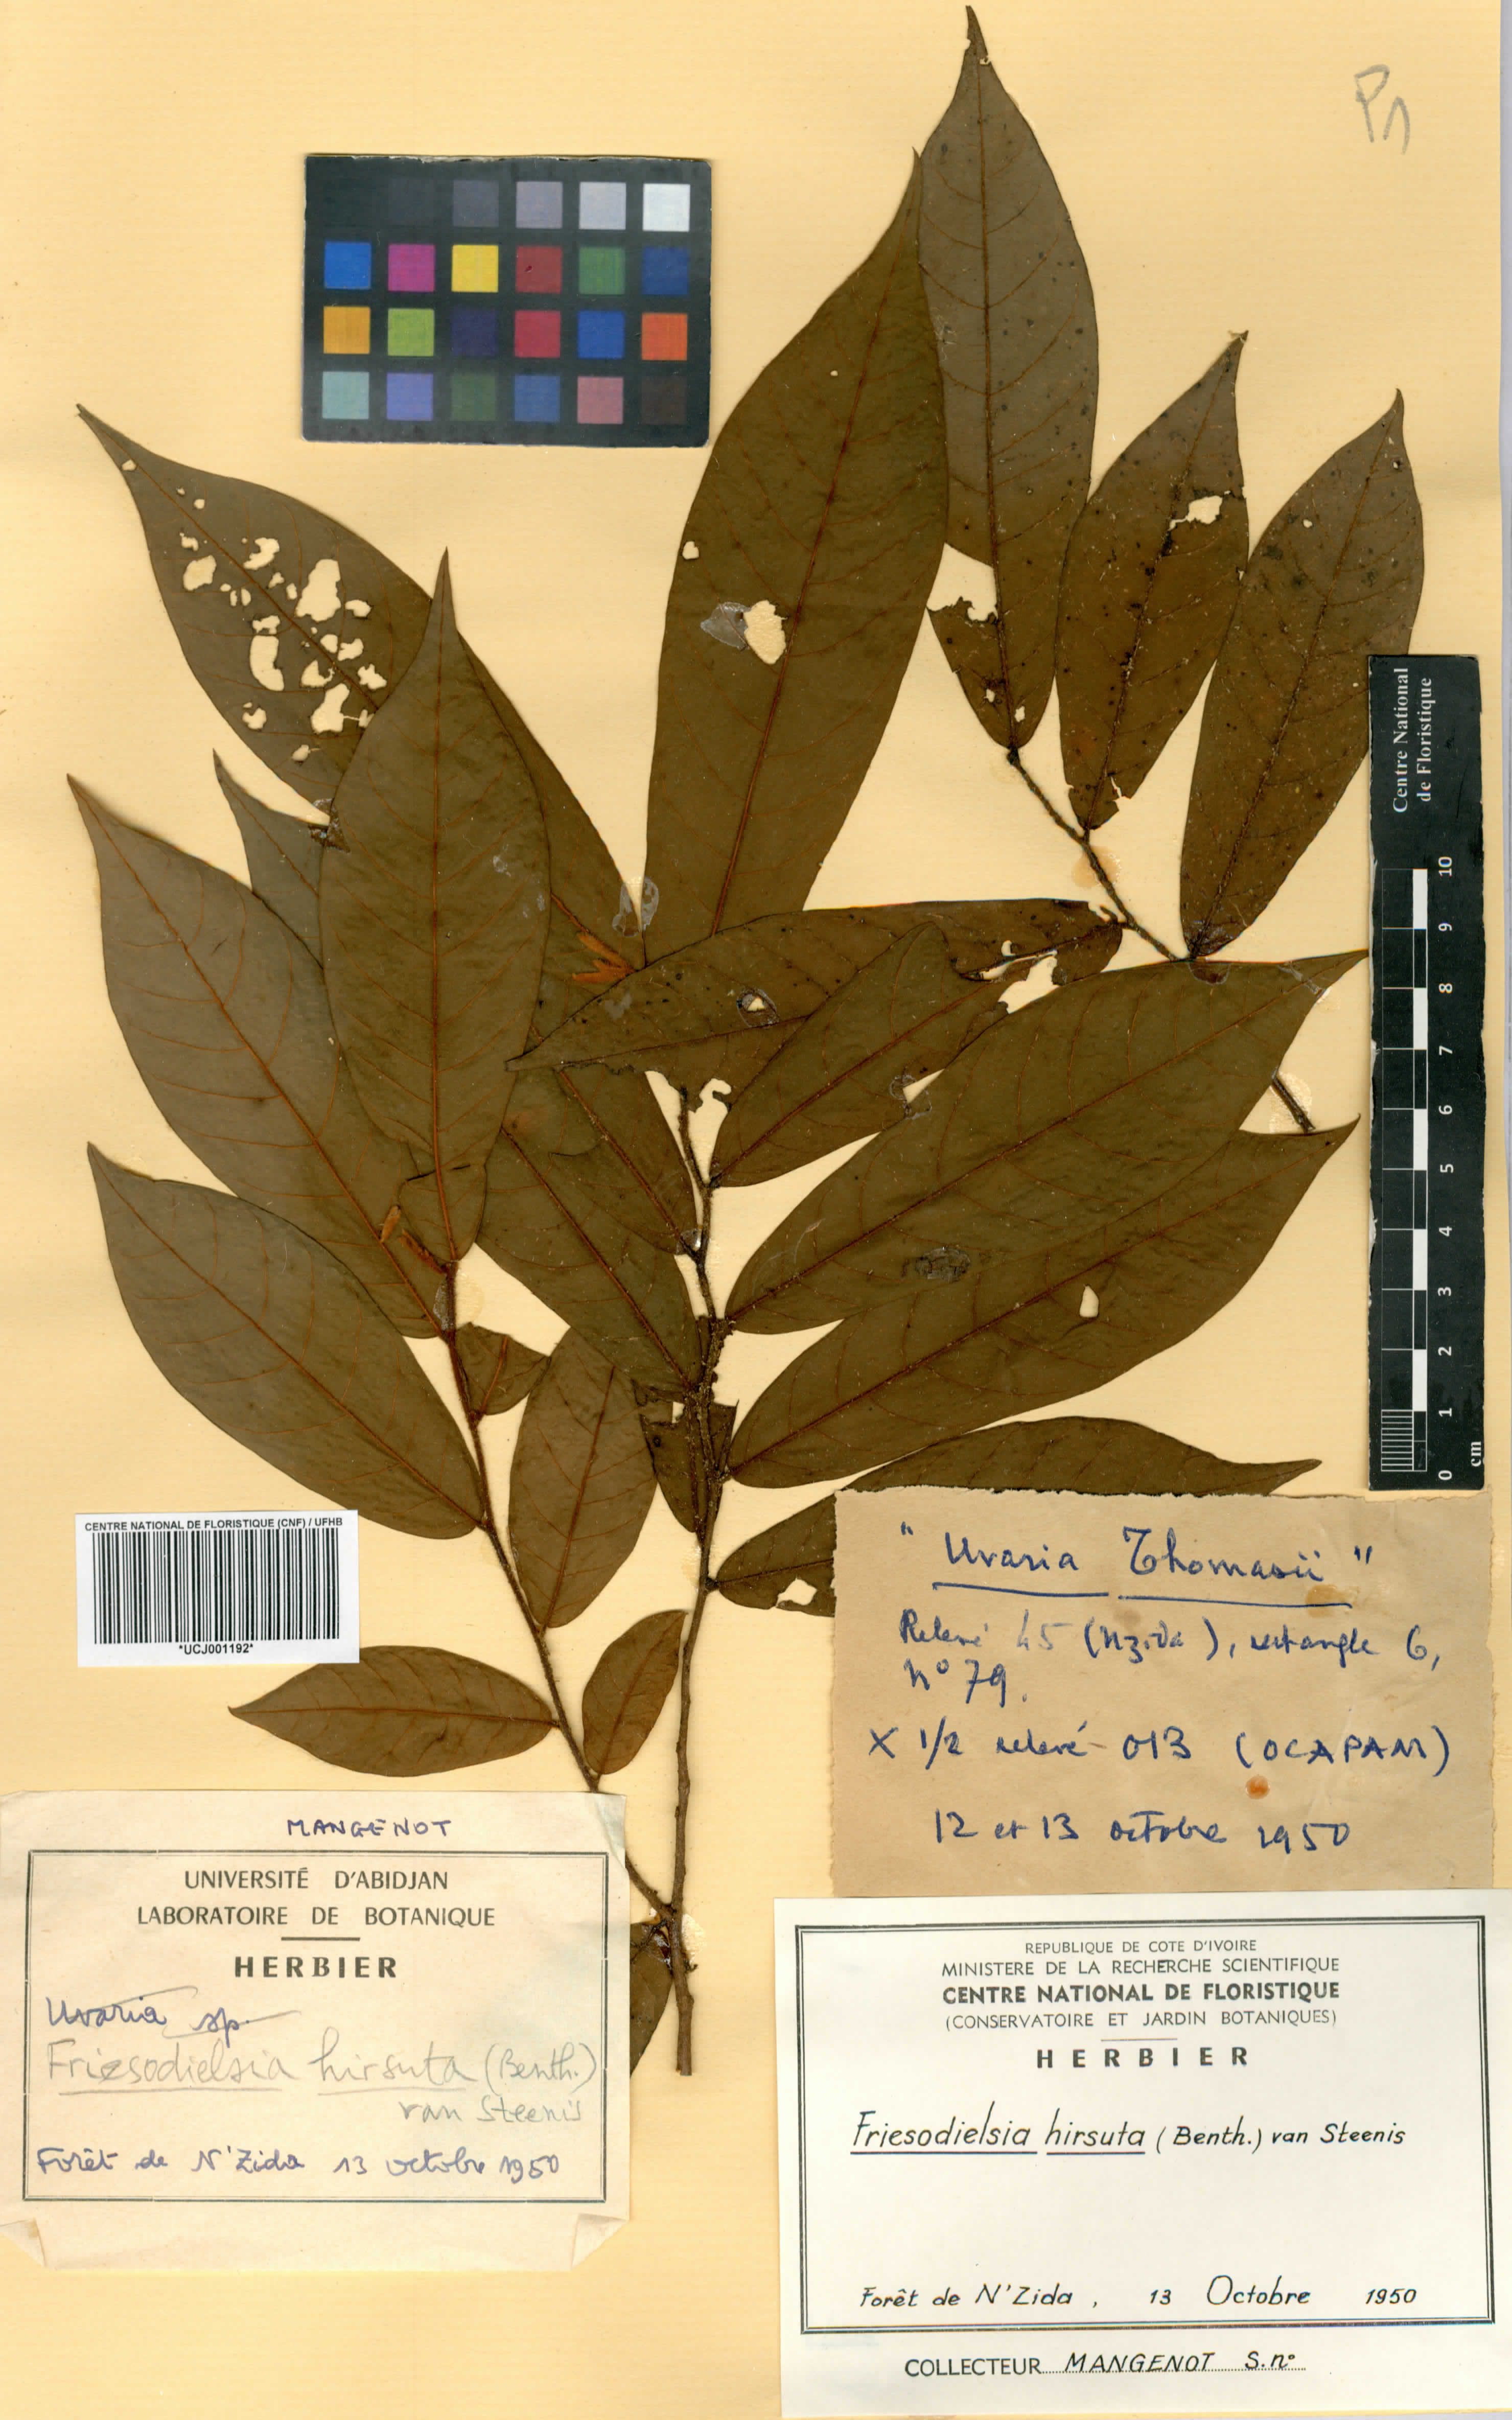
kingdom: Plantae
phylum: Tracheophyta
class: Magnoliopsida
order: Magnoliales
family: Annonaceae
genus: Friesodielsia
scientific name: Friesodielsia hirsuta
